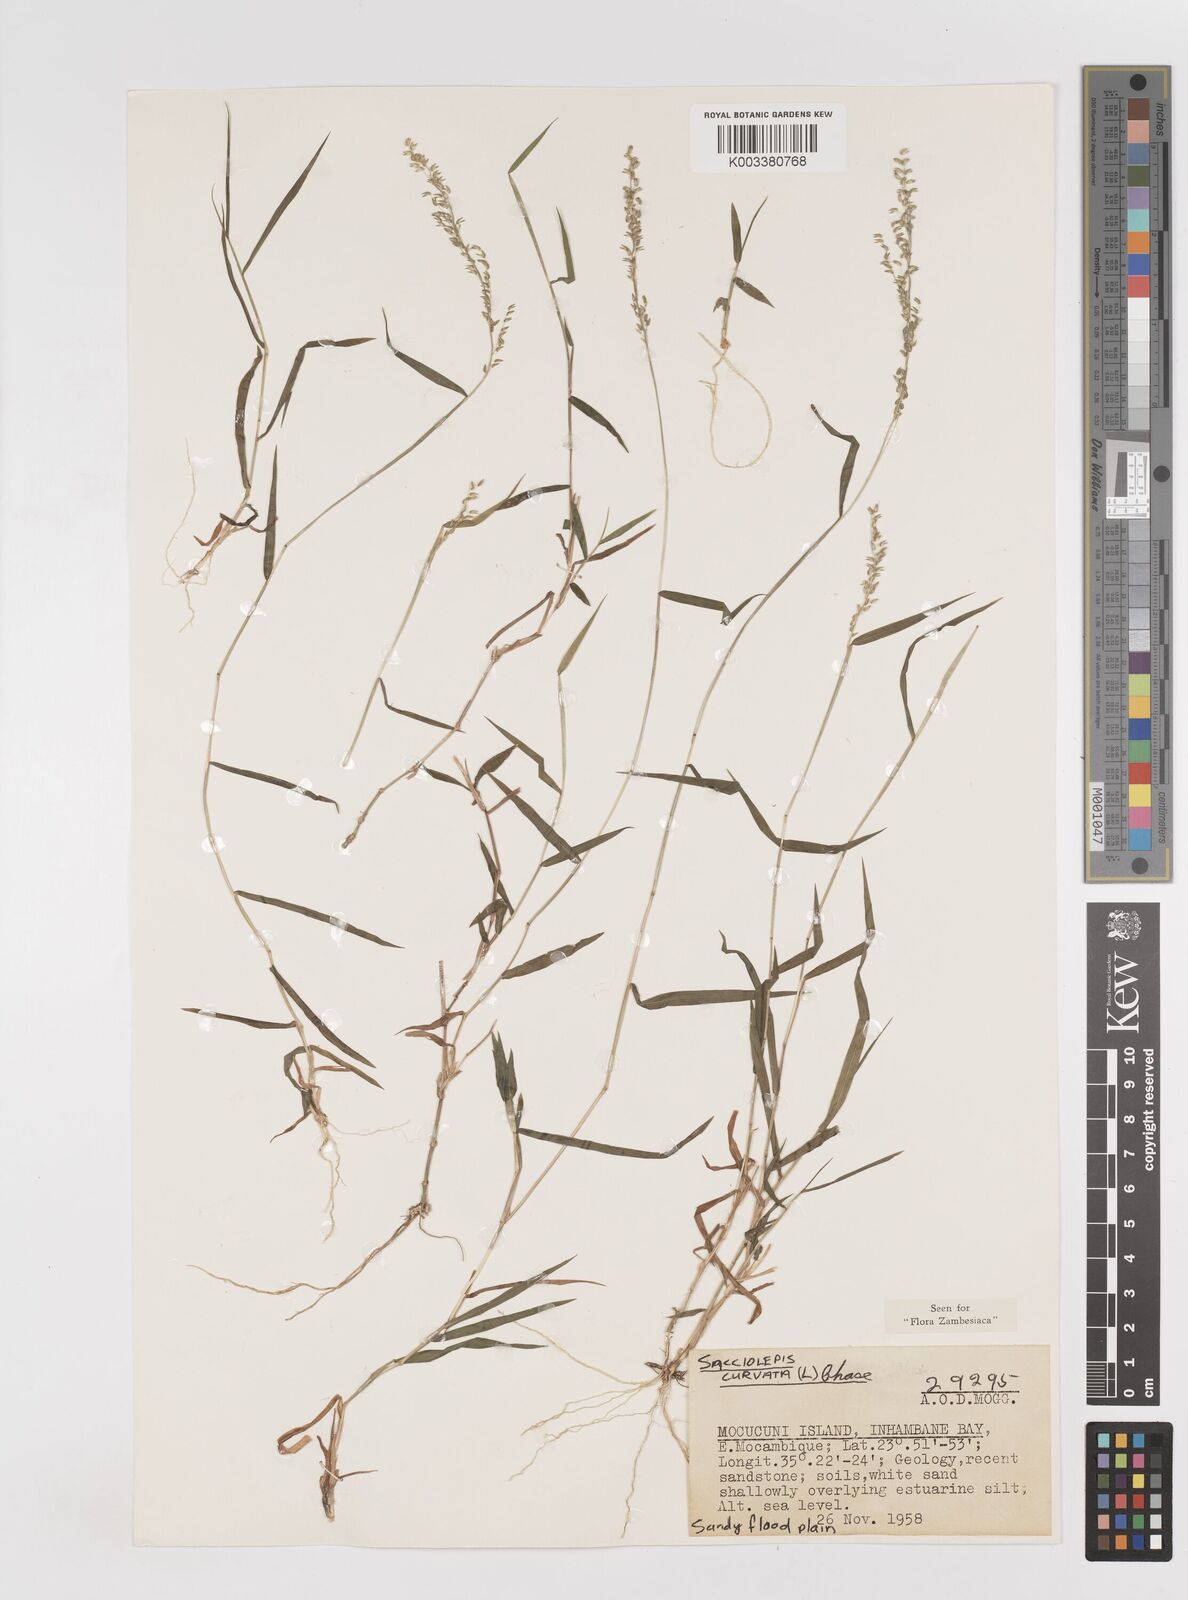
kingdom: Plantae
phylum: Tracheophyta
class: Liliopsida
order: Poales
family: Poaceae
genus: Sacciolepis
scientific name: Sacciolepis curvata
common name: Forest hood grass
